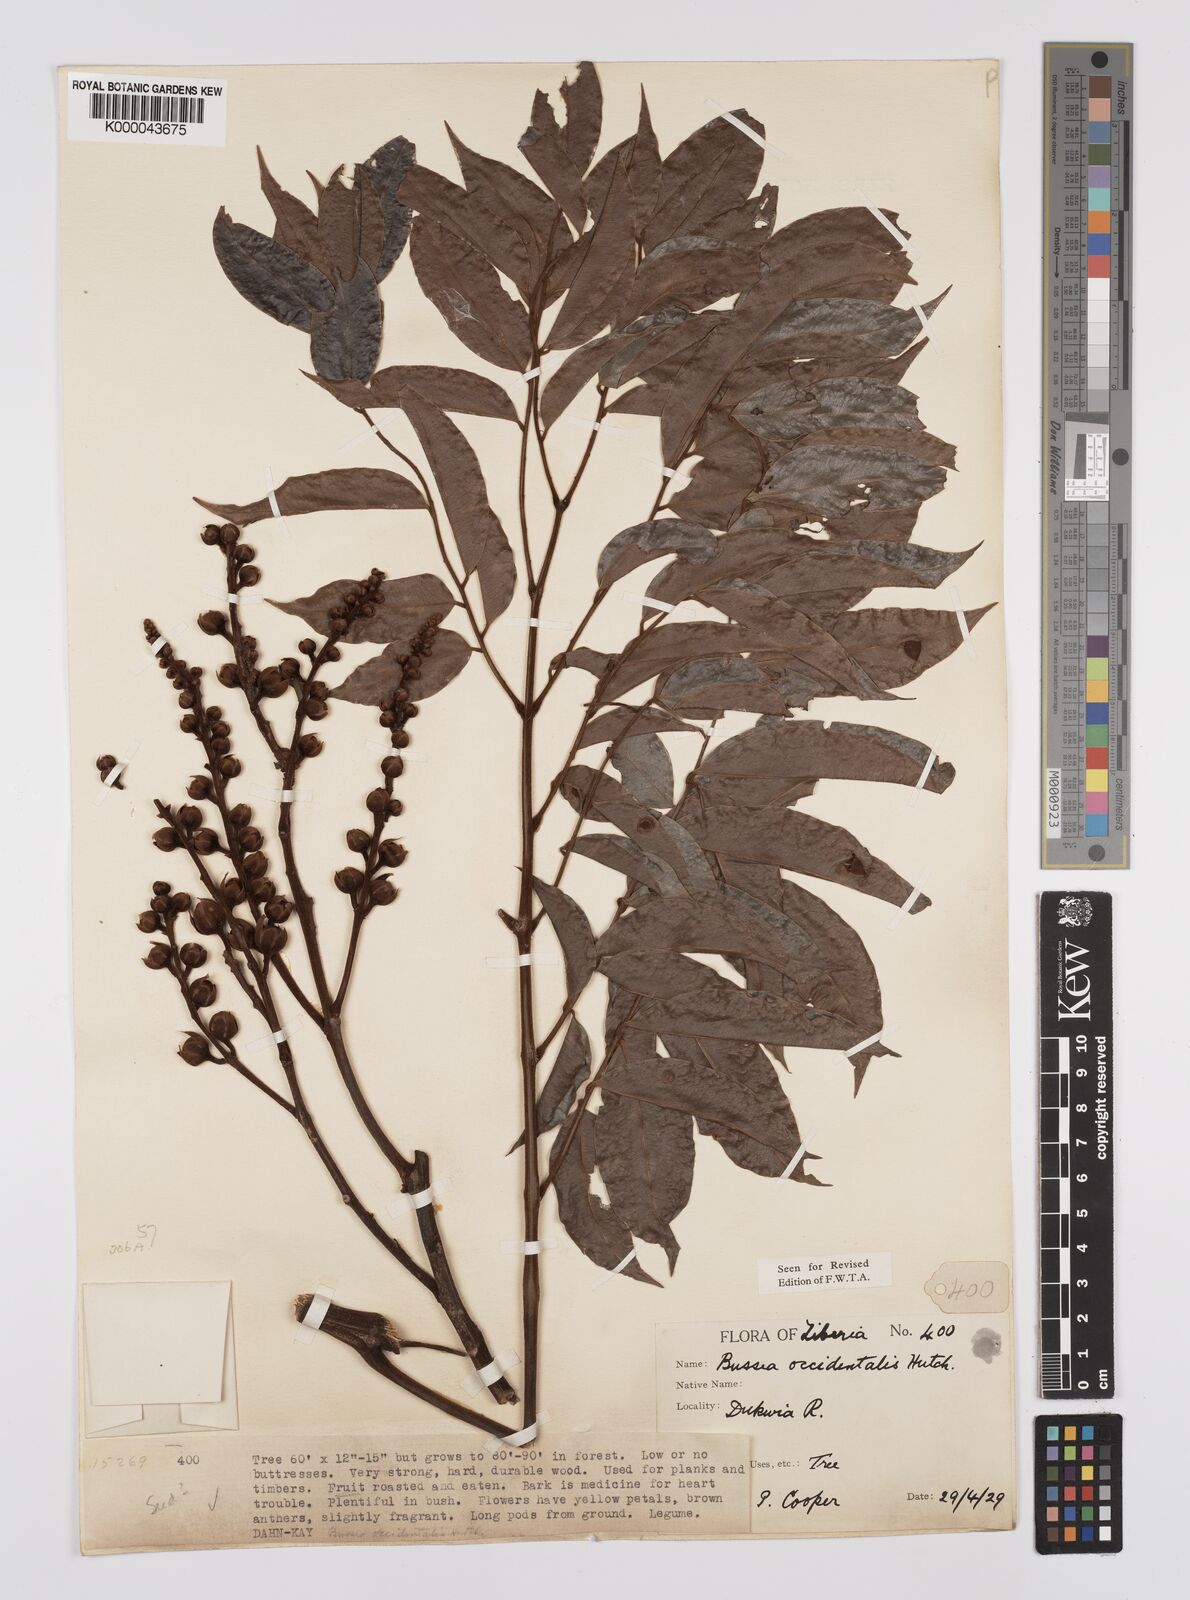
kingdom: Plantae
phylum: Tracheophyta
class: Magnoliopsida
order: Fabales
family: Fabaceae
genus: Bussea
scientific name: Bussea occidentalis
